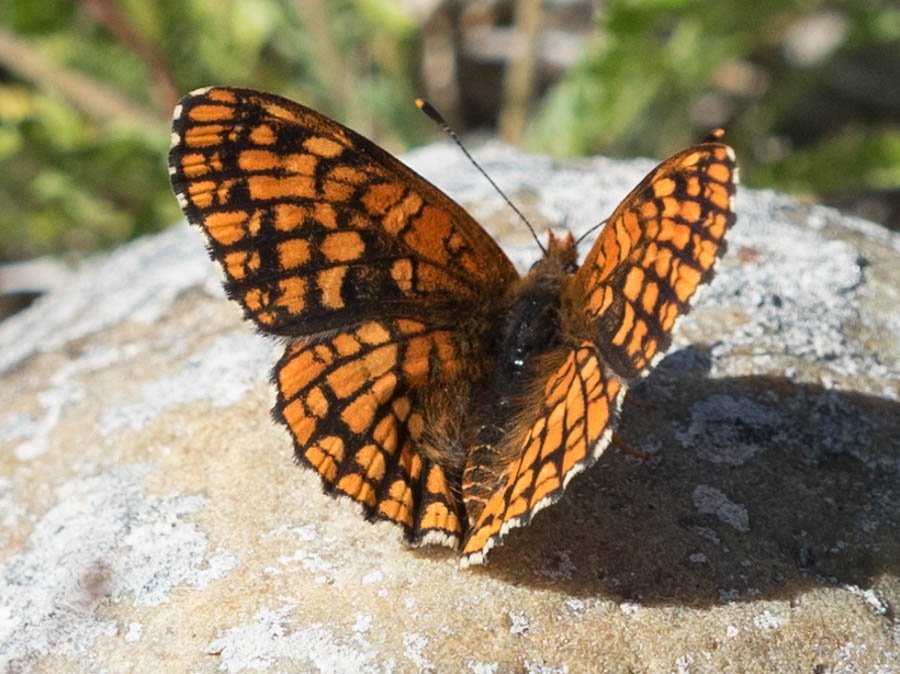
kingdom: Animalia
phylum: Arthropoda
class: Insecta
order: Lepidoptera
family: Nymphalidae
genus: Chlosyne
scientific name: Chlosyne palla
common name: Northern Checkerspot
